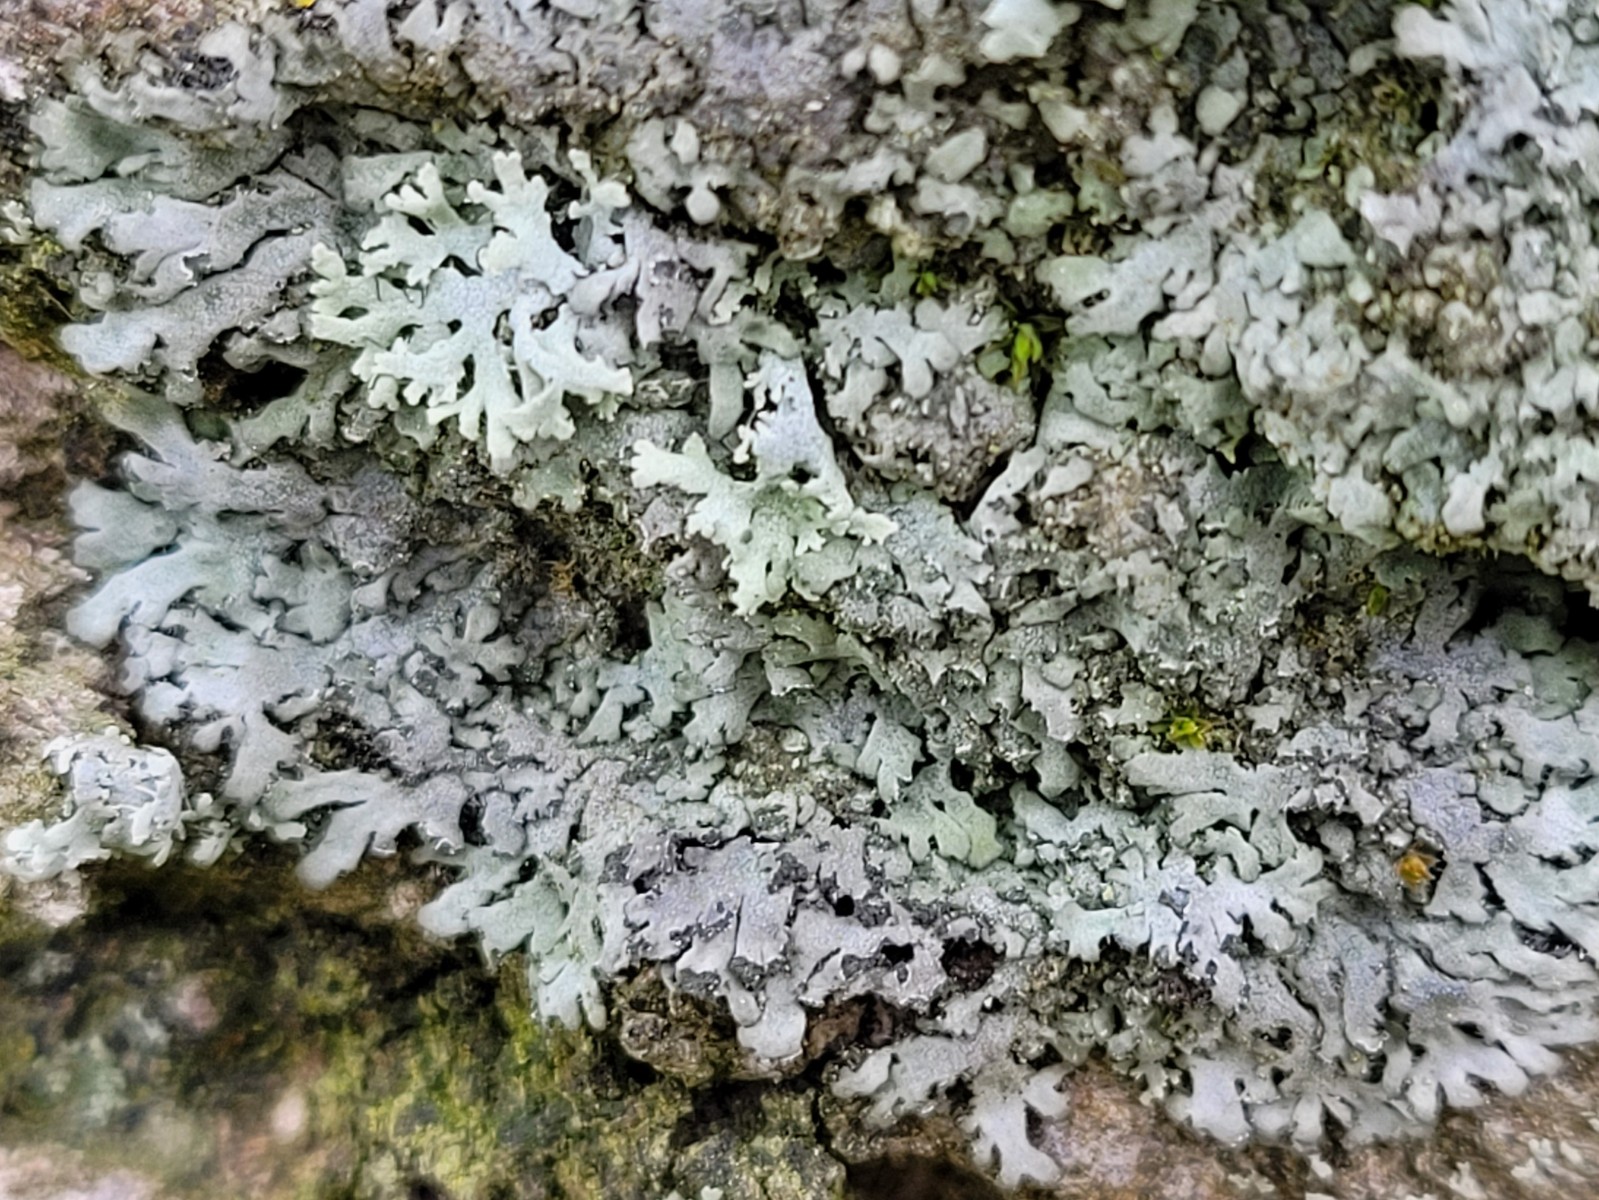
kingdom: Fungi
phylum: Ascomycota
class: Lecanoromycetes
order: Caliciales
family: Physciaceae
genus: Phaeophyscia
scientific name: Phaeophyscia orbicularis
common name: grågrøn rosetlav
